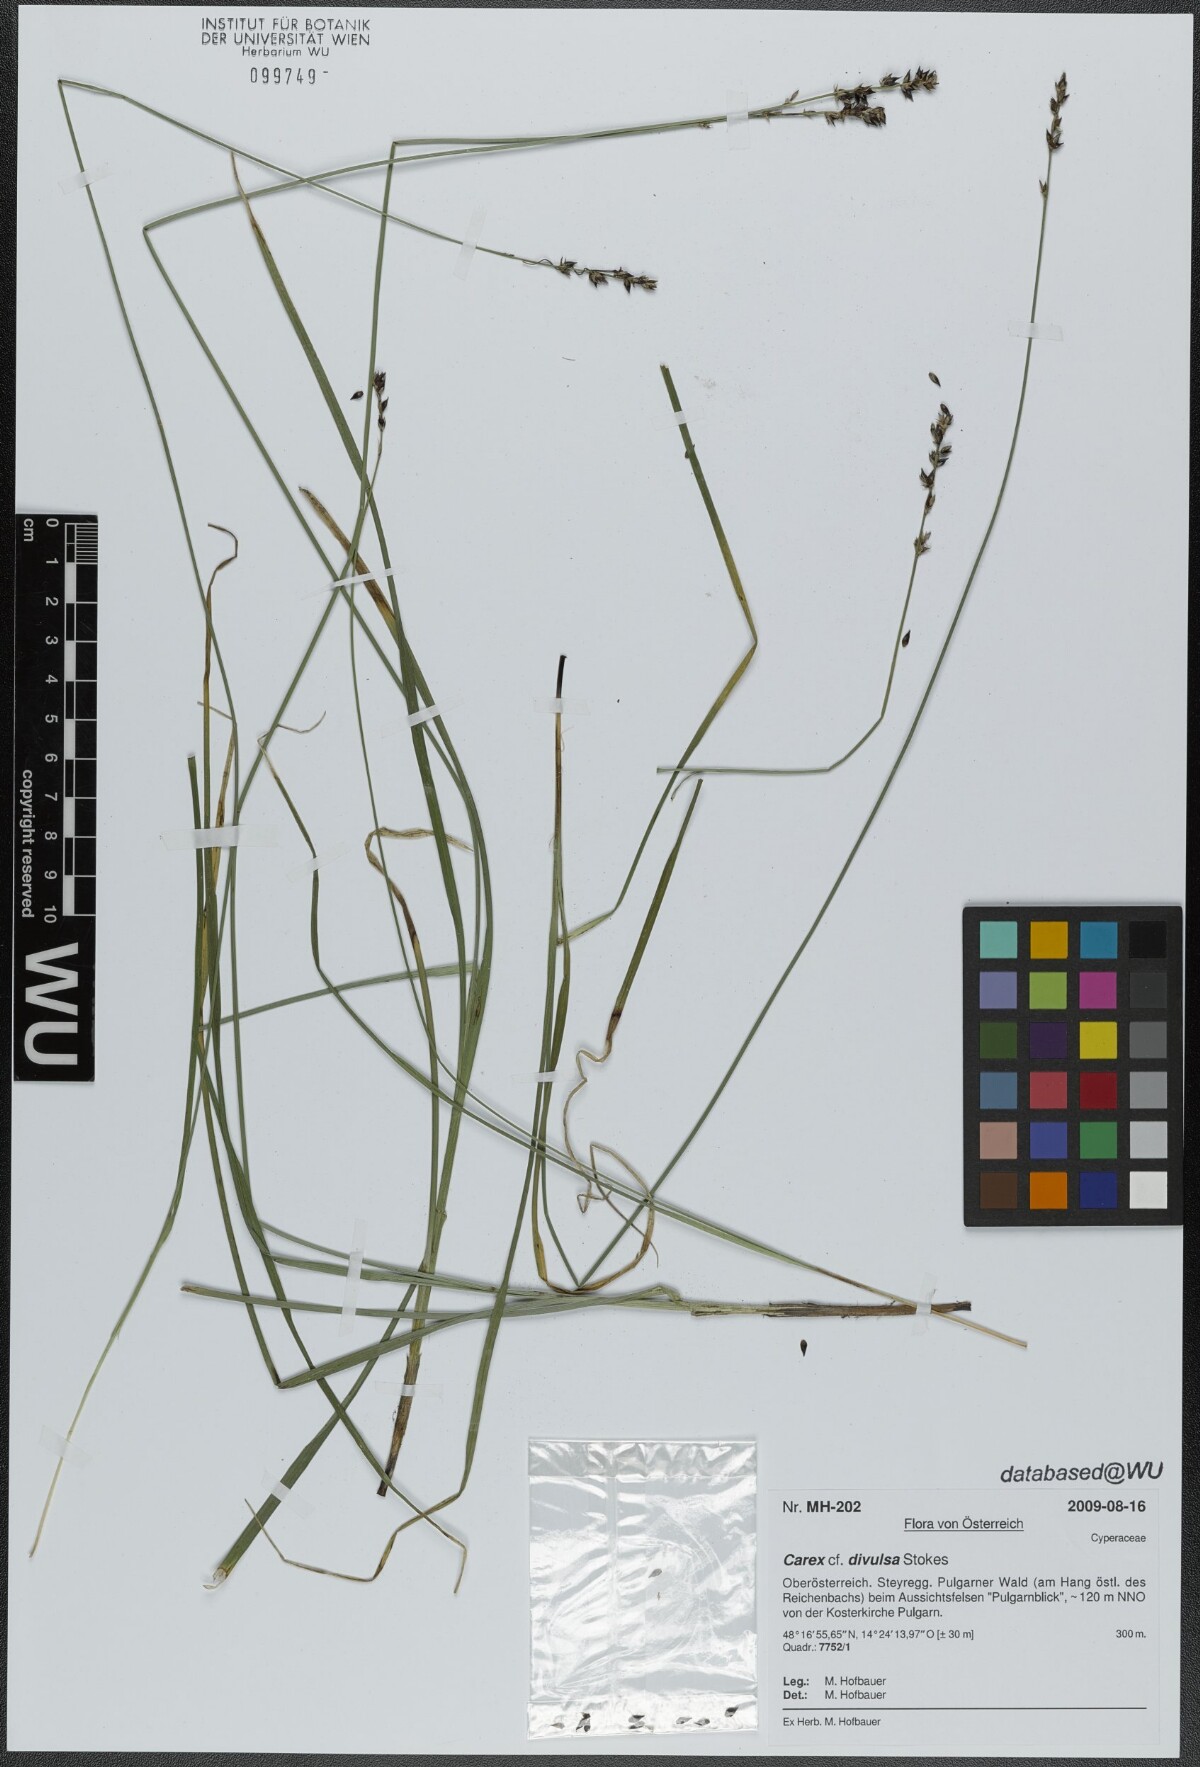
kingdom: Plantae
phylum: Tracheophyta
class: Liliopsida
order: Poales
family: Cyperaceae
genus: Carex
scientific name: Carex divulsa
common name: Grassland sedge
